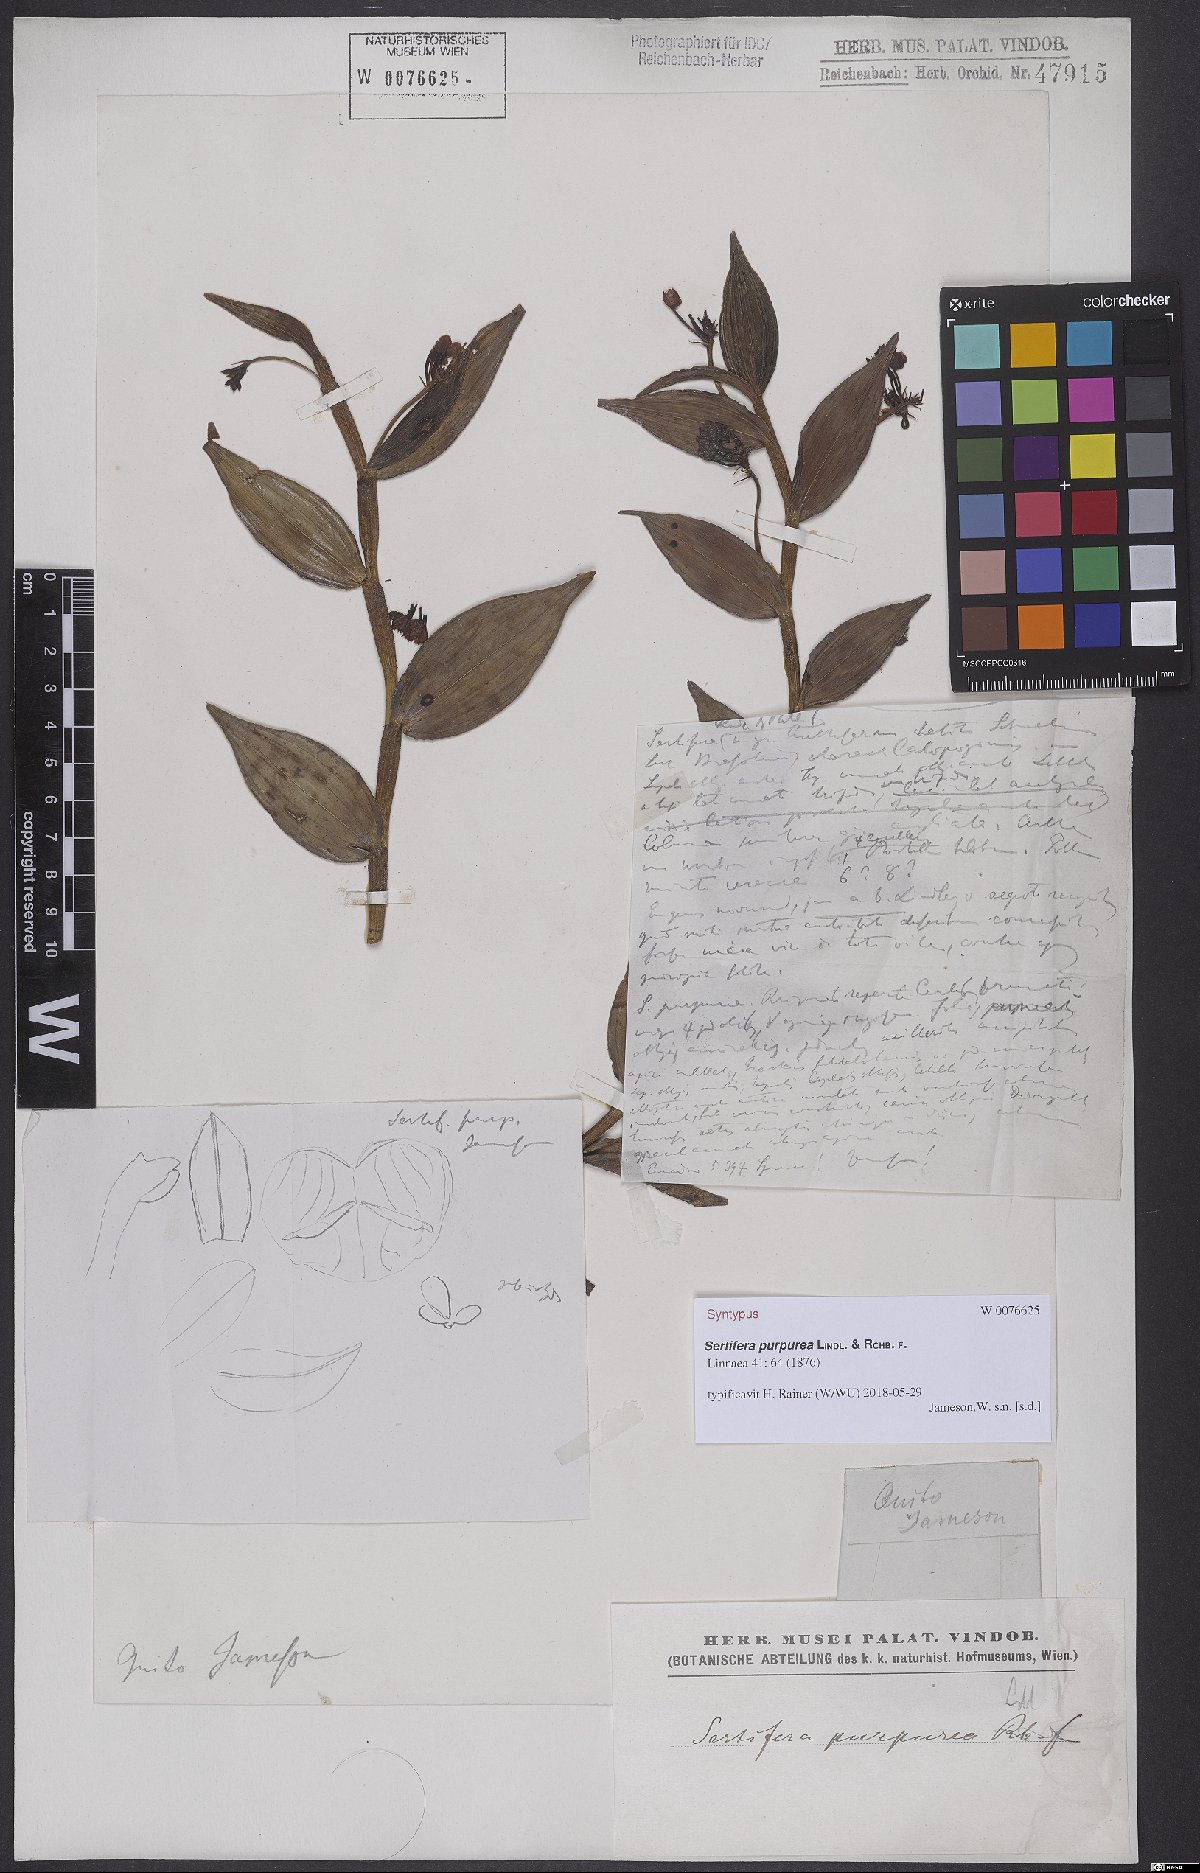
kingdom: Plantae
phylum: Tracheophyta
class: Liliopsida
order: Asparagales
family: Orchidaceae
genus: Sertifera
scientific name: Sertifera purpurea
